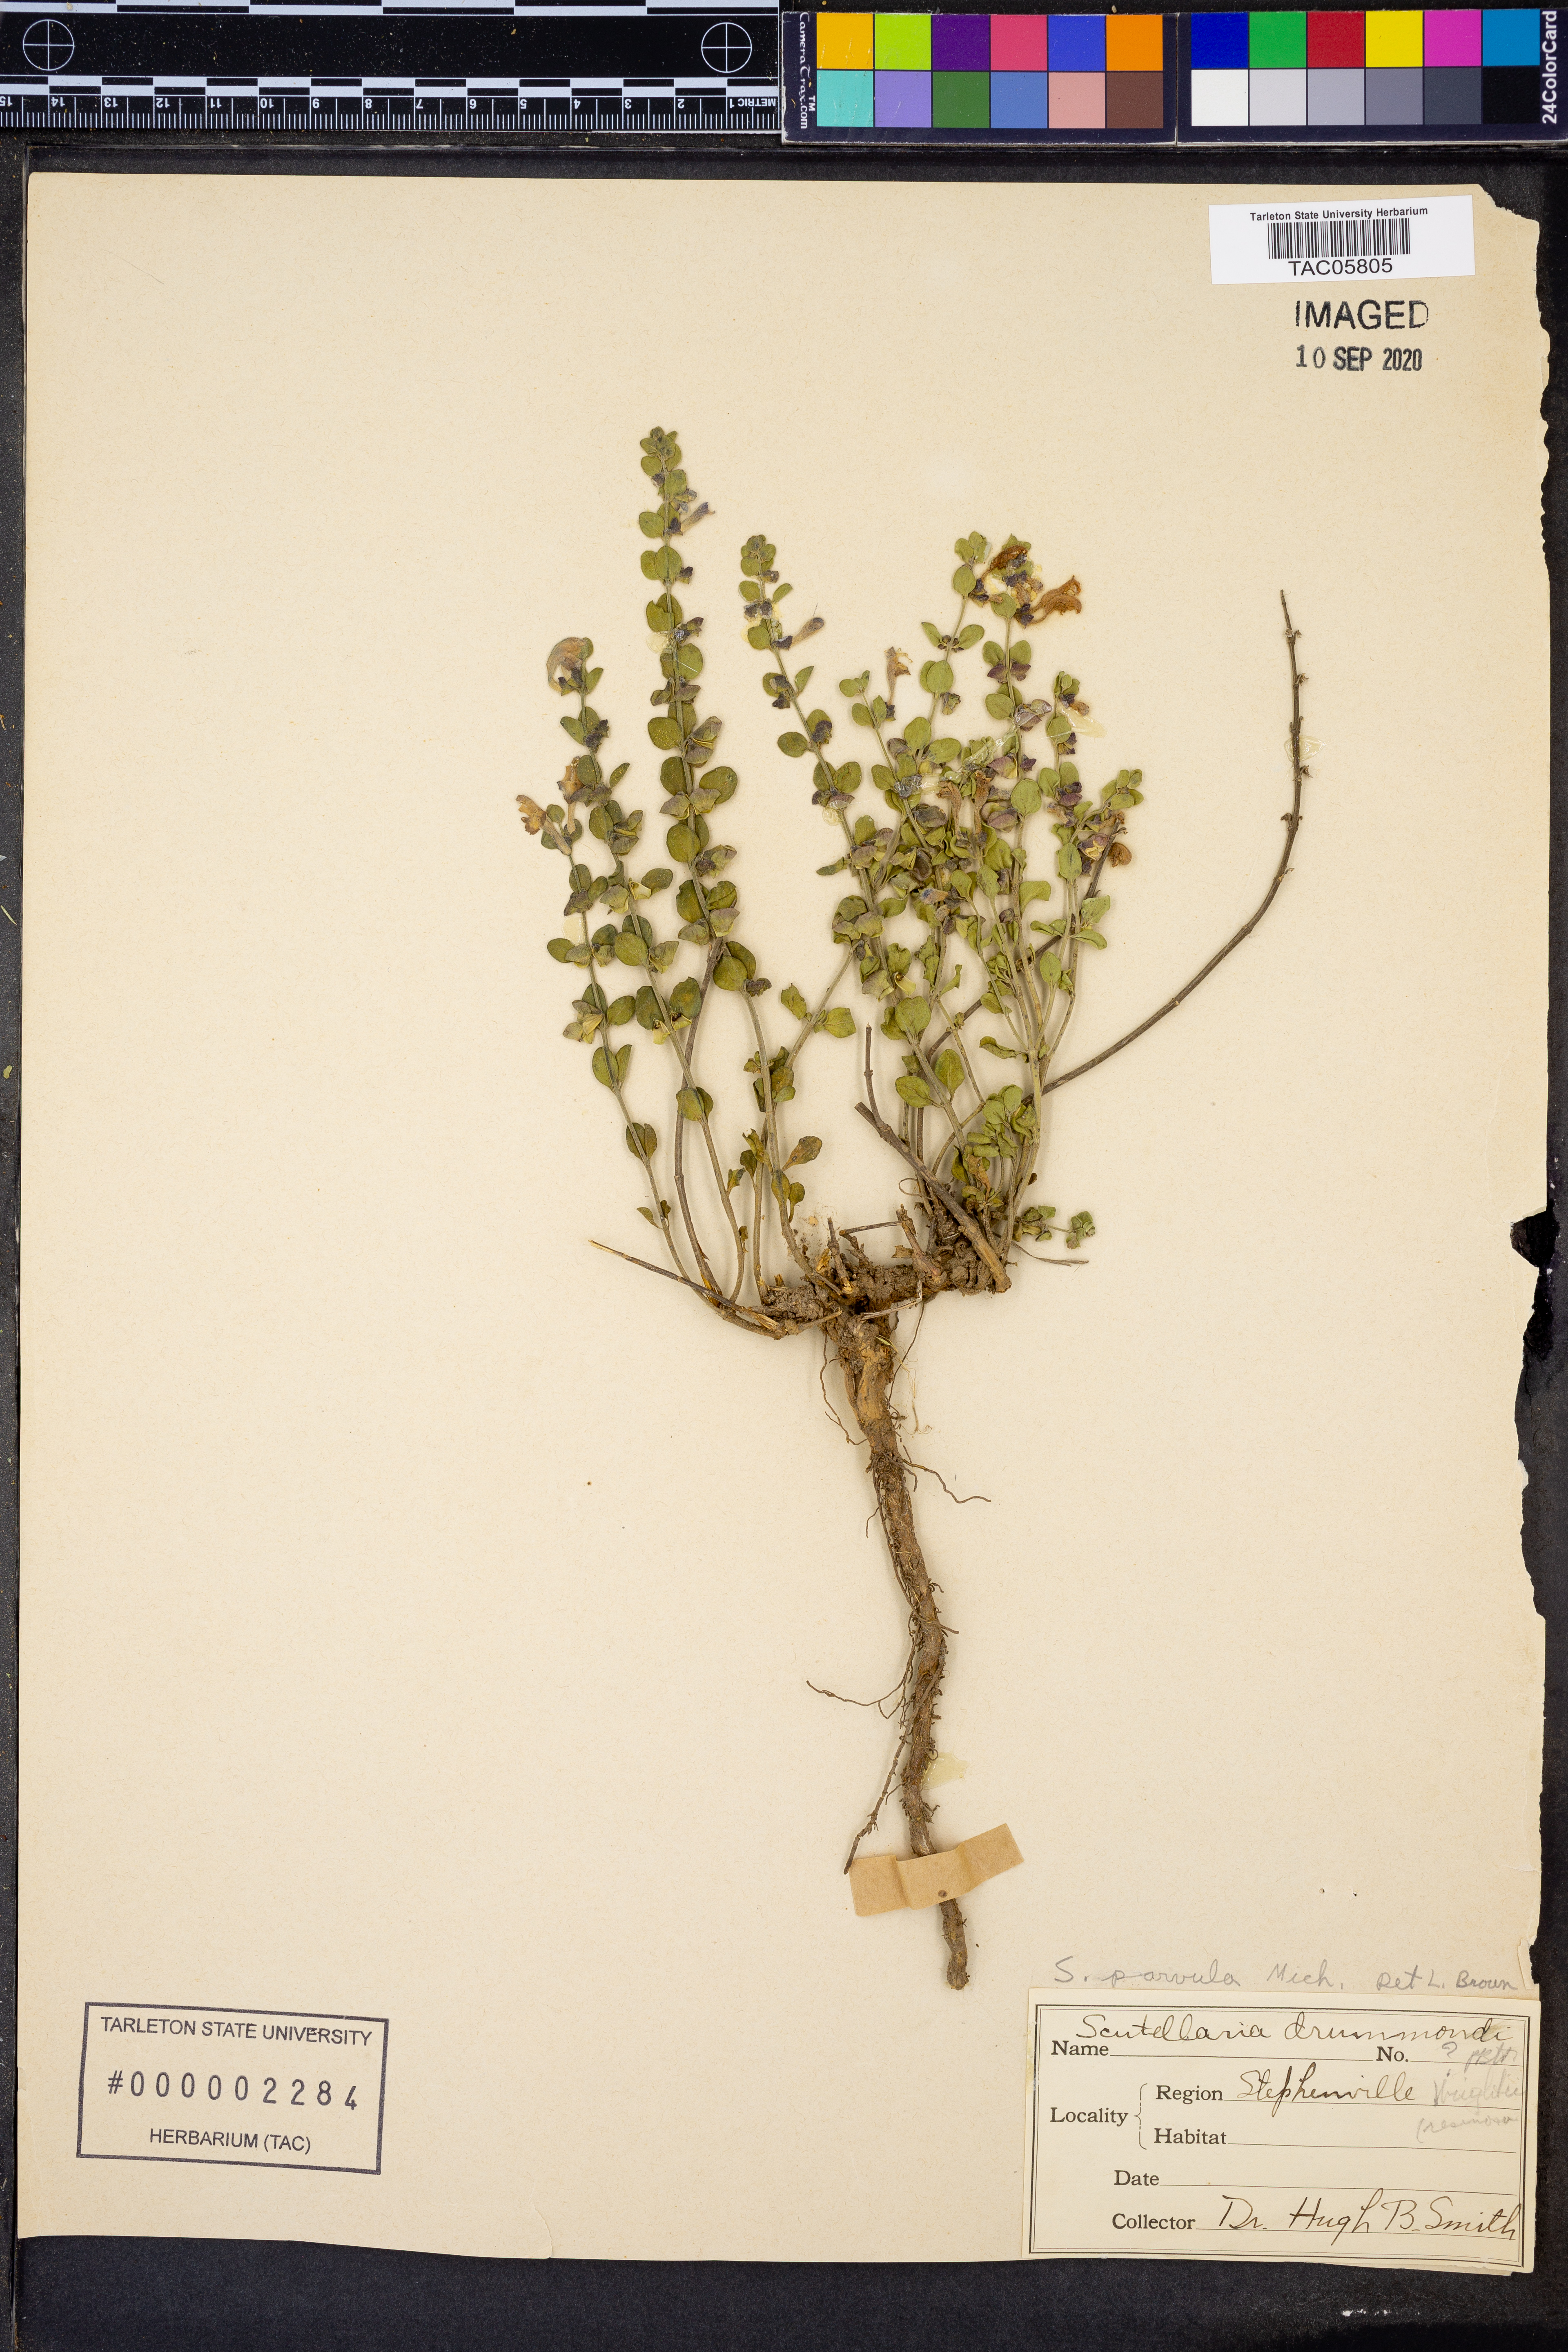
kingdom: Plantae
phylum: Tracheophyta
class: Magnoliopsida
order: Lamiales
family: Lamiaceae
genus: Scutellaria
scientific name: Scutellaria parvula
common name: Little scullcap
